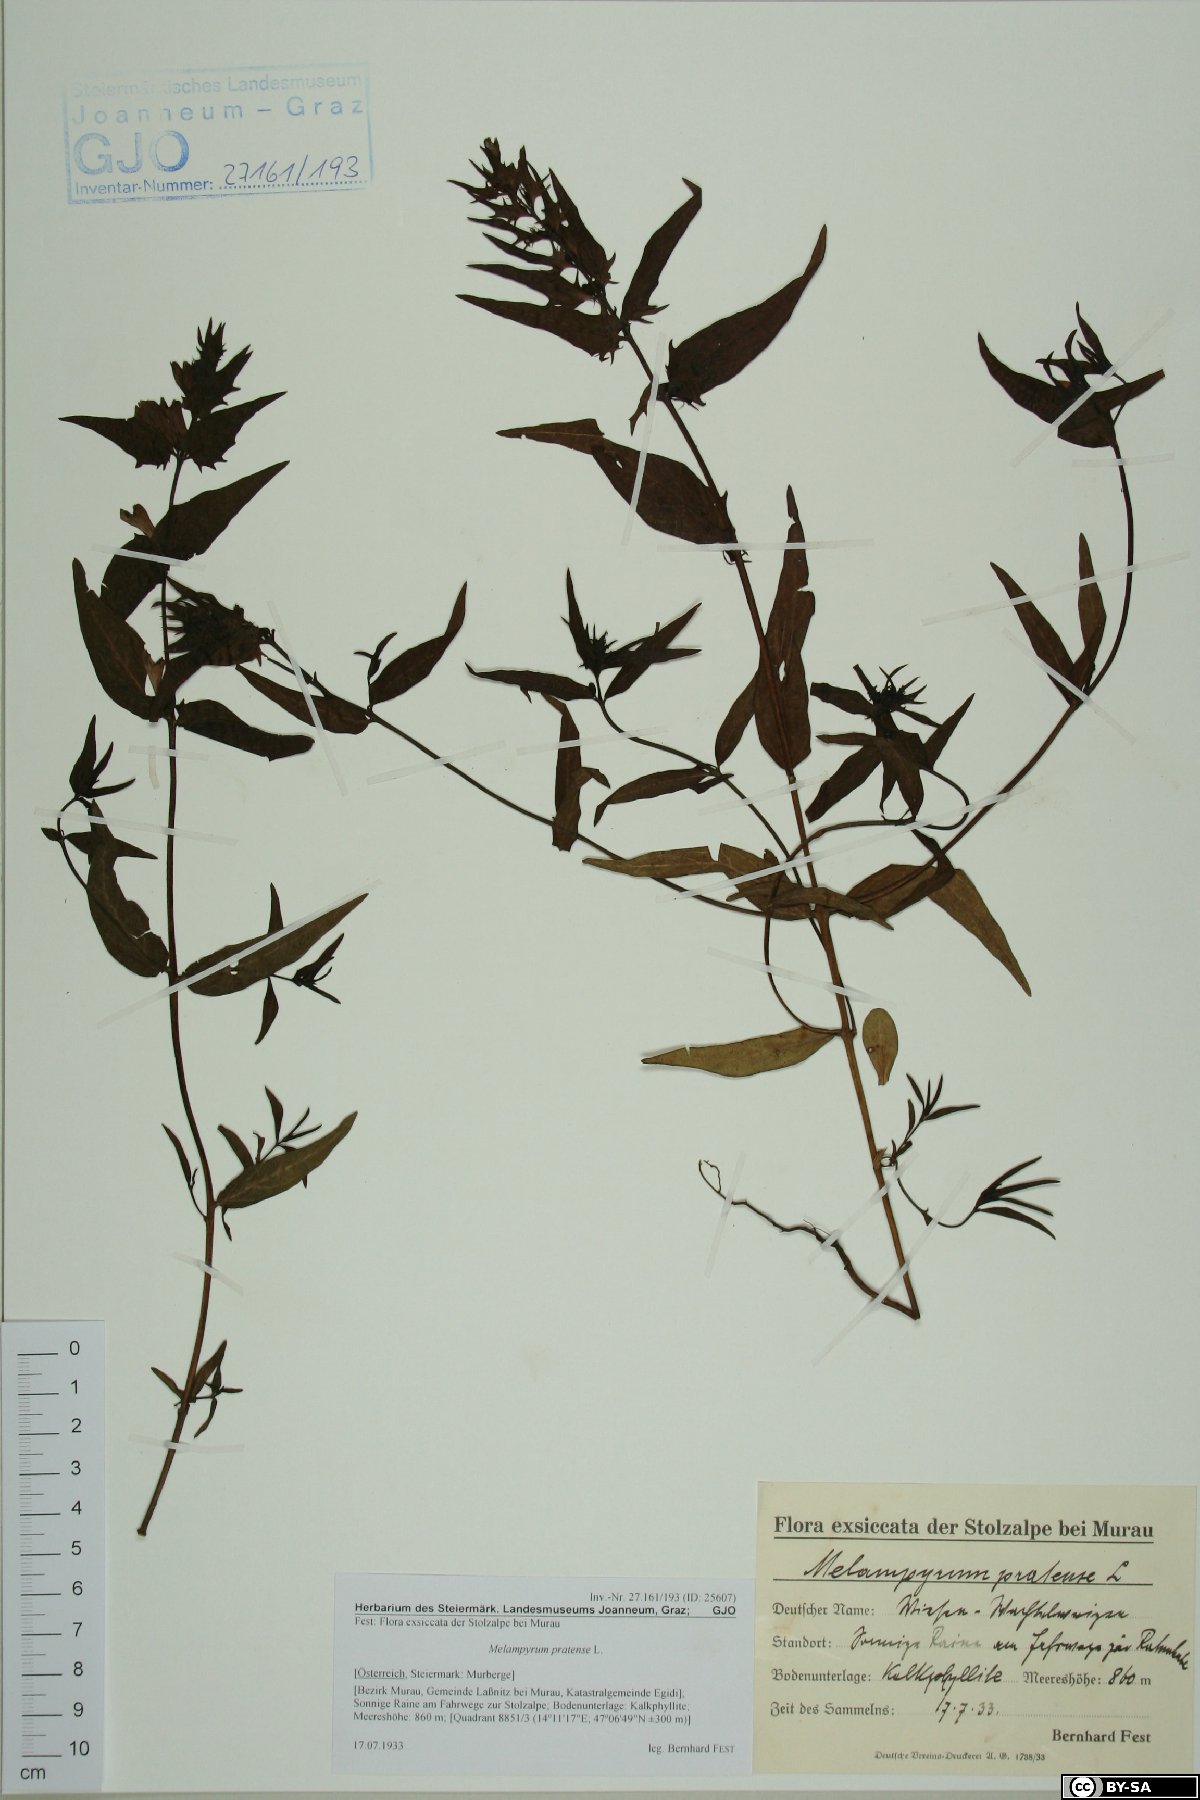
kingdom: Plantae
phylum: Tracheophyta
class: Magnoliopsida
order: Lamiales
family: Orobanchaceae
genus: Melampyrum
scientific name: Melampyrum pratense
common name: Common cow-wheat
